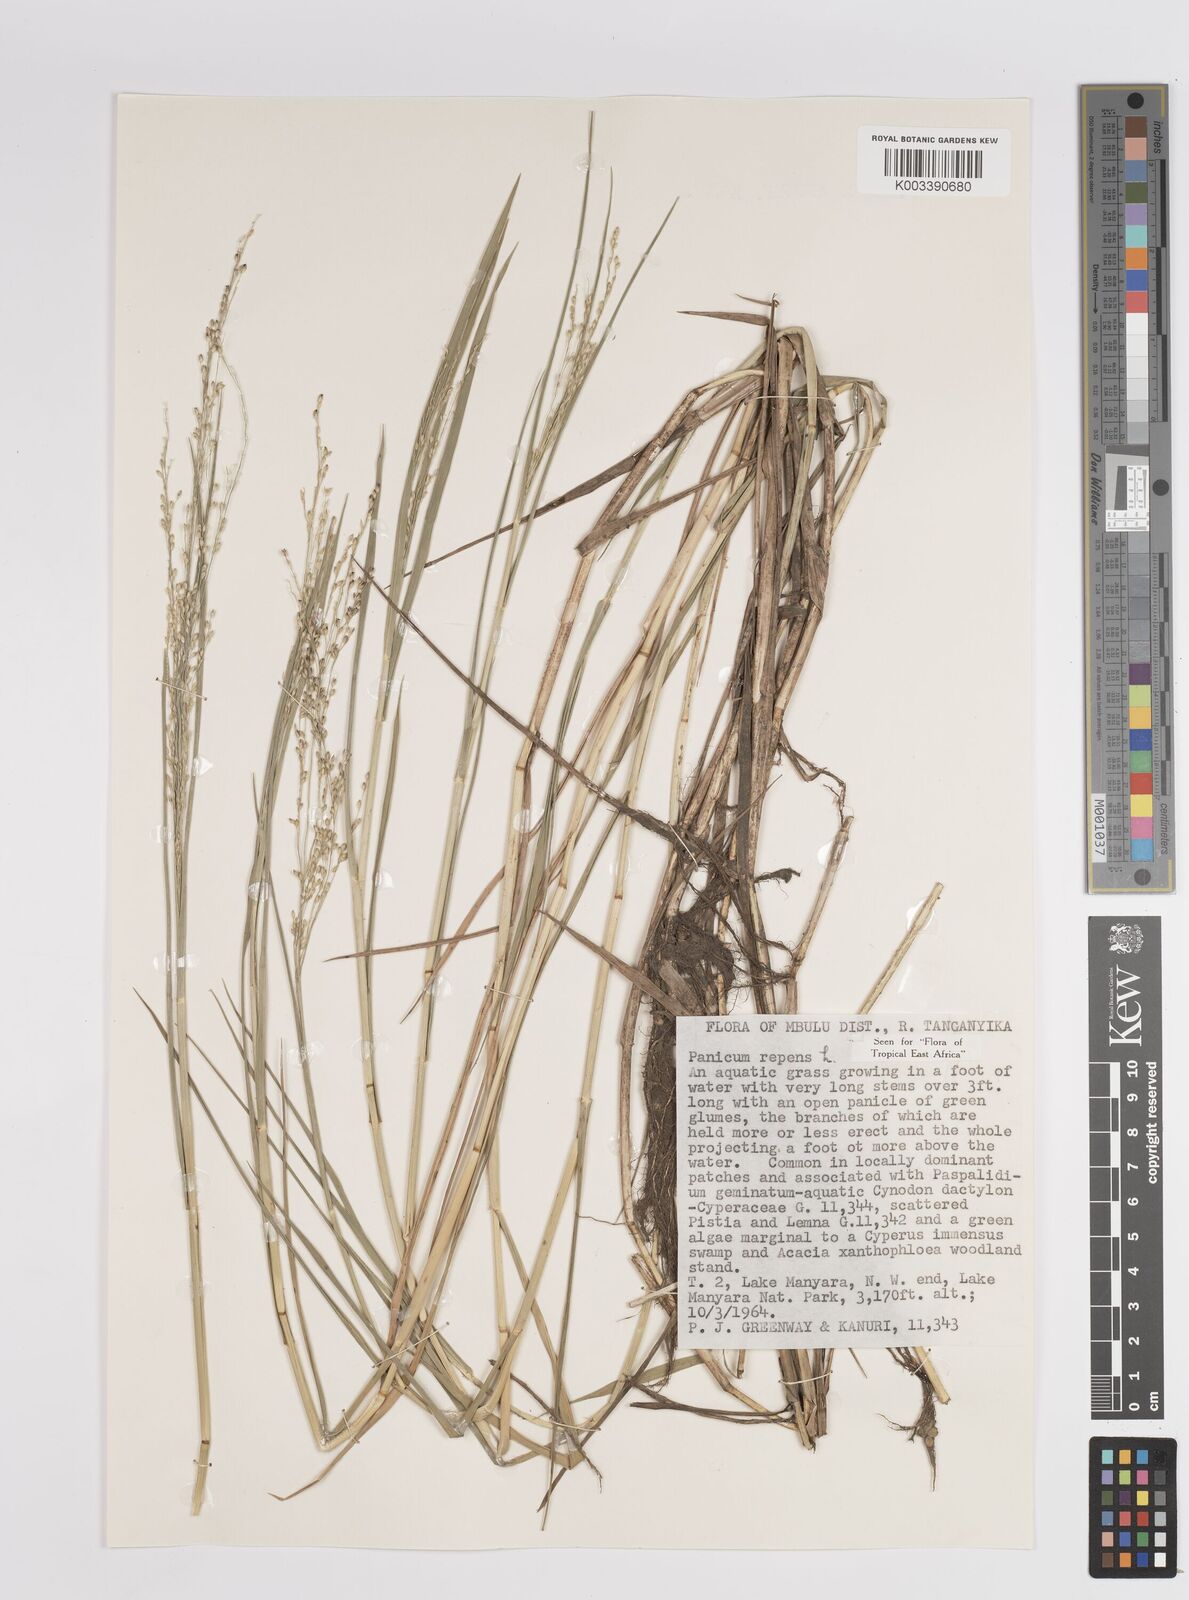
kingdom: Plantae
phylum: Tracheophyta
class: Liliopsida
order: Poales
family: Poaceae
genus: Panicum
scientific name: Panicum repens
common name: Torpedo grass
